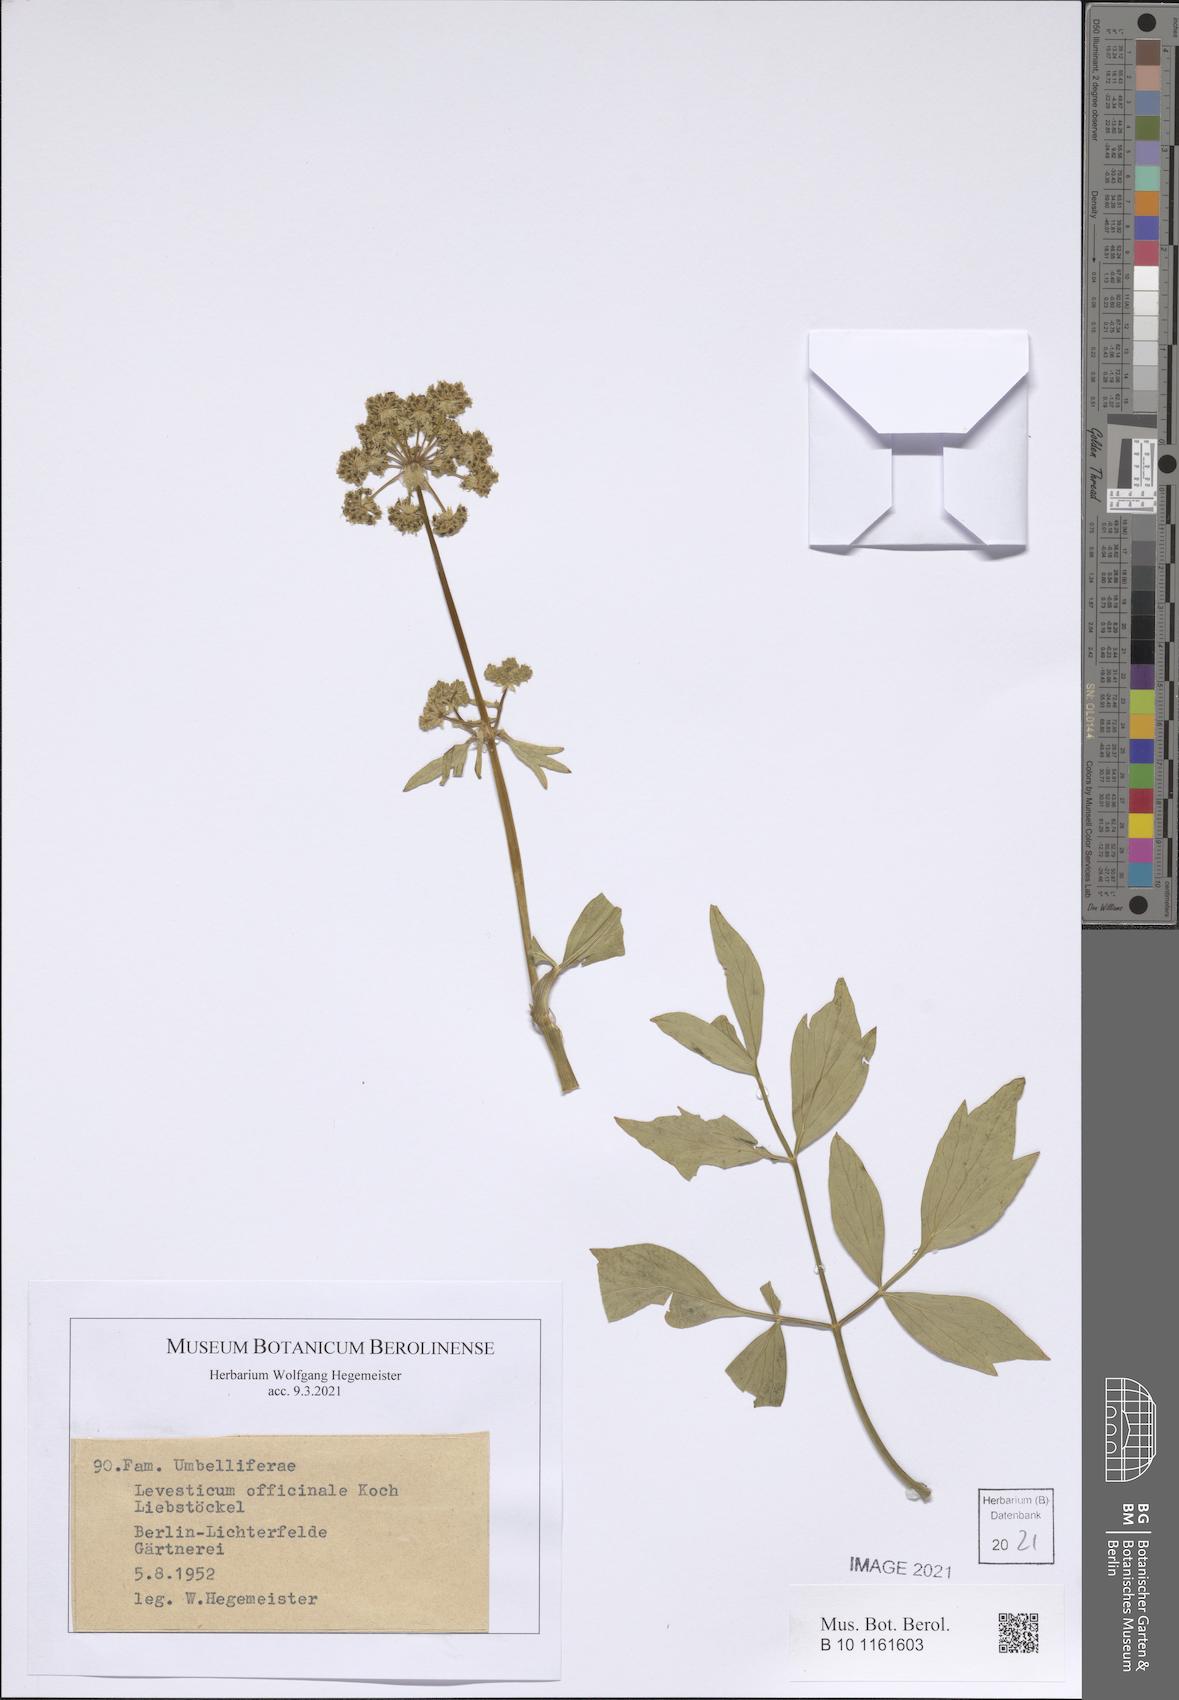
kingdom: Plantae
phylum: Tracheophyta
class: Magnoliopsida
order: Apiales
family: Apiaceae
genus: Levisticum
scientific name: Levisticum officinale
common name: Lovage
